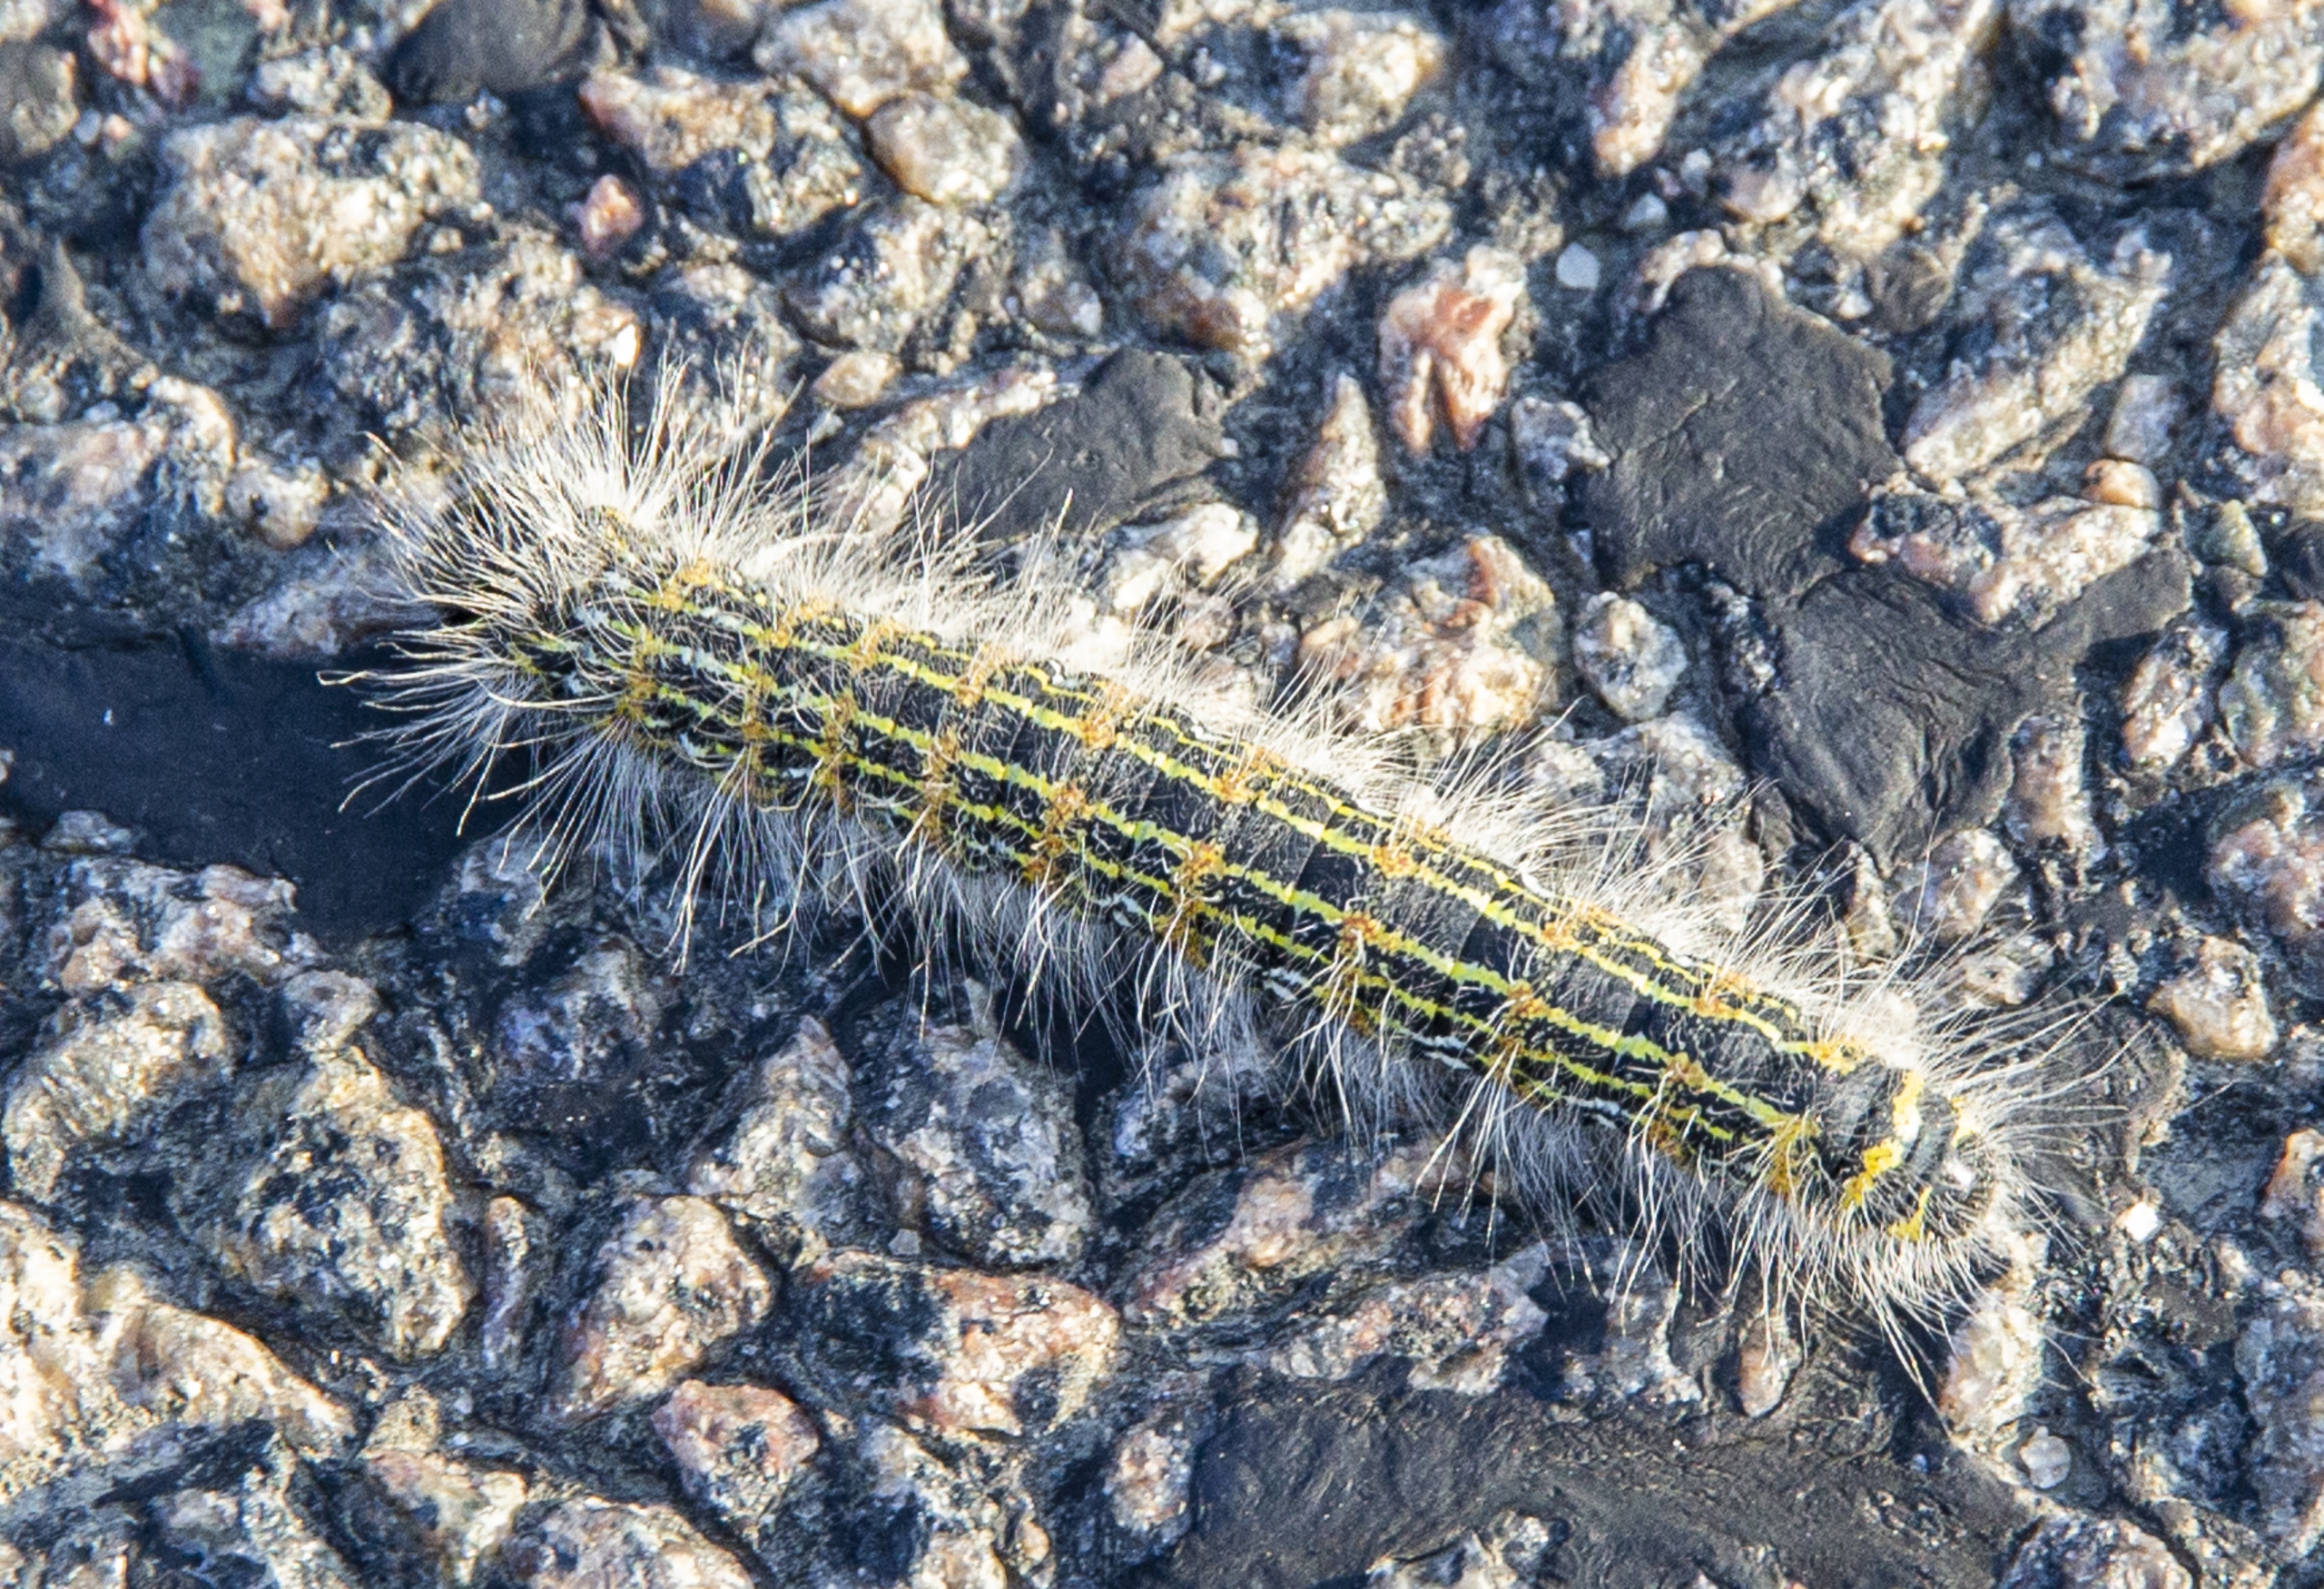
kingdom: Animalia
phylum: Arthropoda
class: Insecta
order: Lepidoptera
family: Notodontidae
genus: Phalera
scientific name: Phalera bucephala
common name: Måneplet
